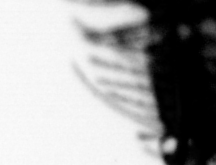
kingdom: Animalia
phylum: Annelida
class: Polychaeta
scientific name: Polychaeta
